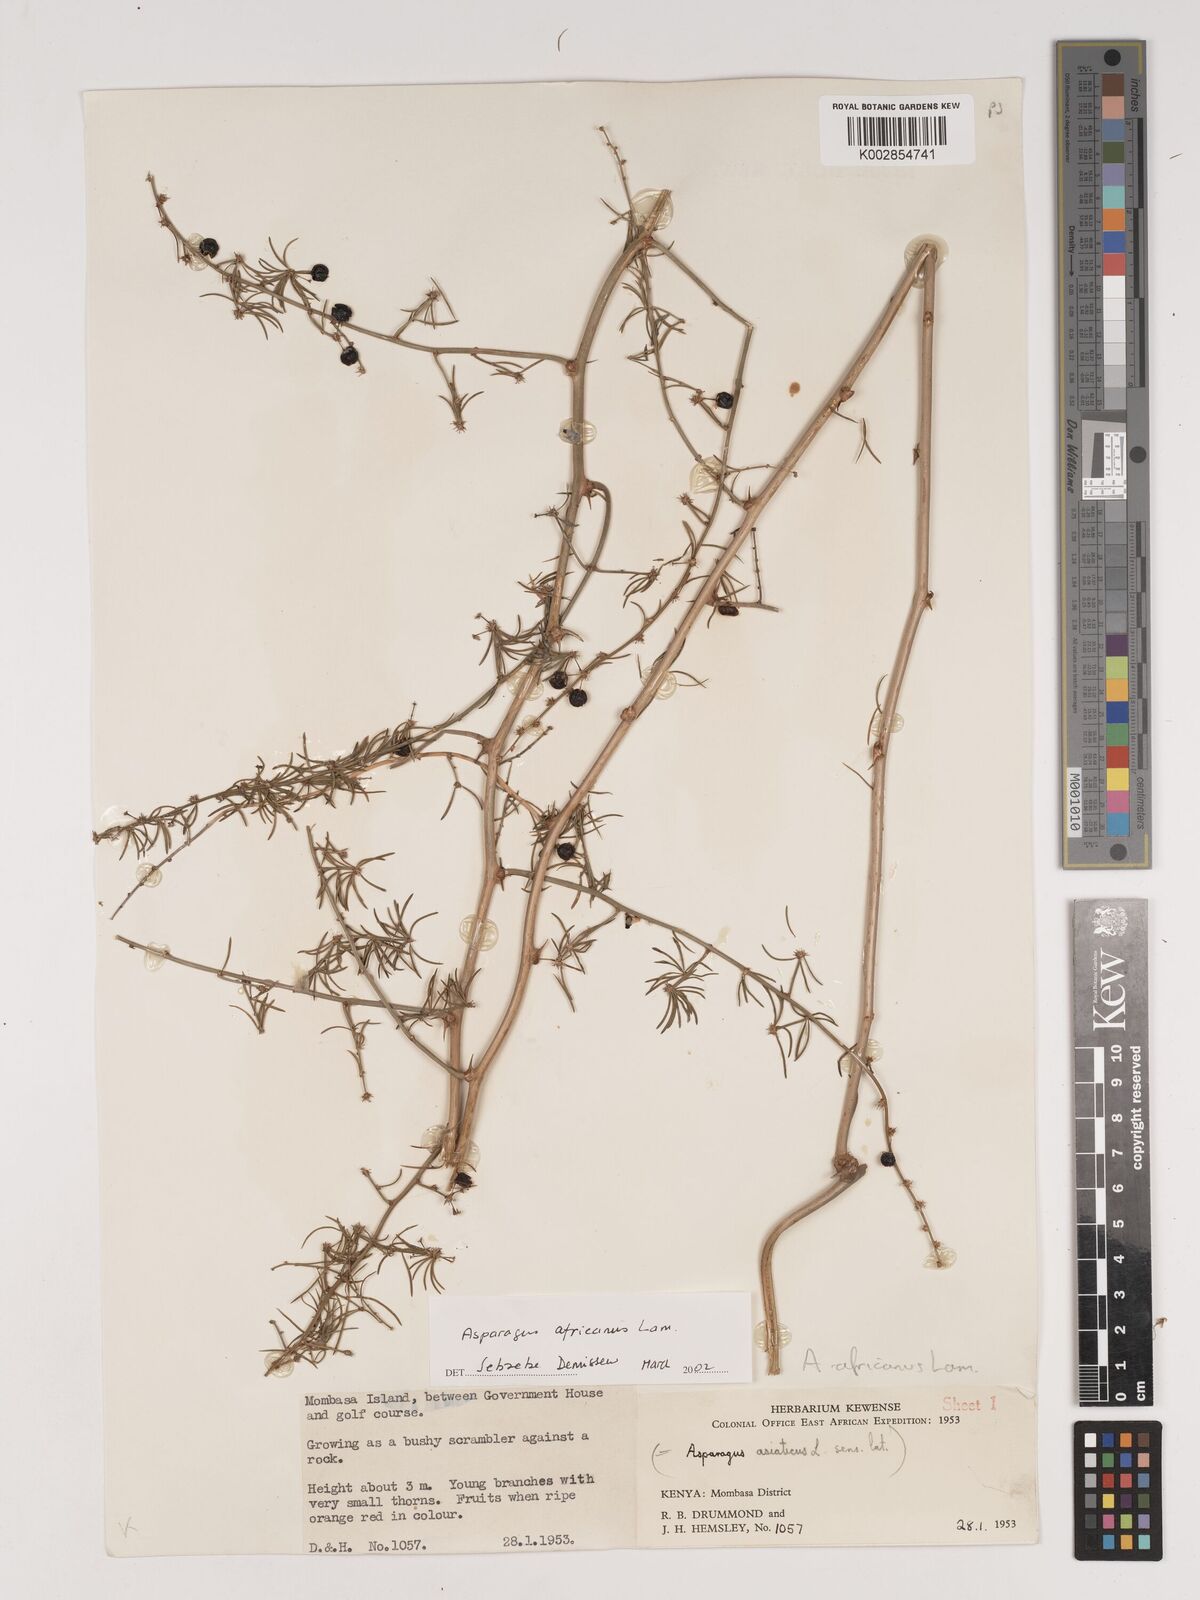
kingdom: Plantae
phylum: Tracheophyta
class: Liliopsida
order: Asparagales
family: Asparagaceae
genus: Asparagus
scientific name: Asparagus africanus
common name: Asparagus-fern
